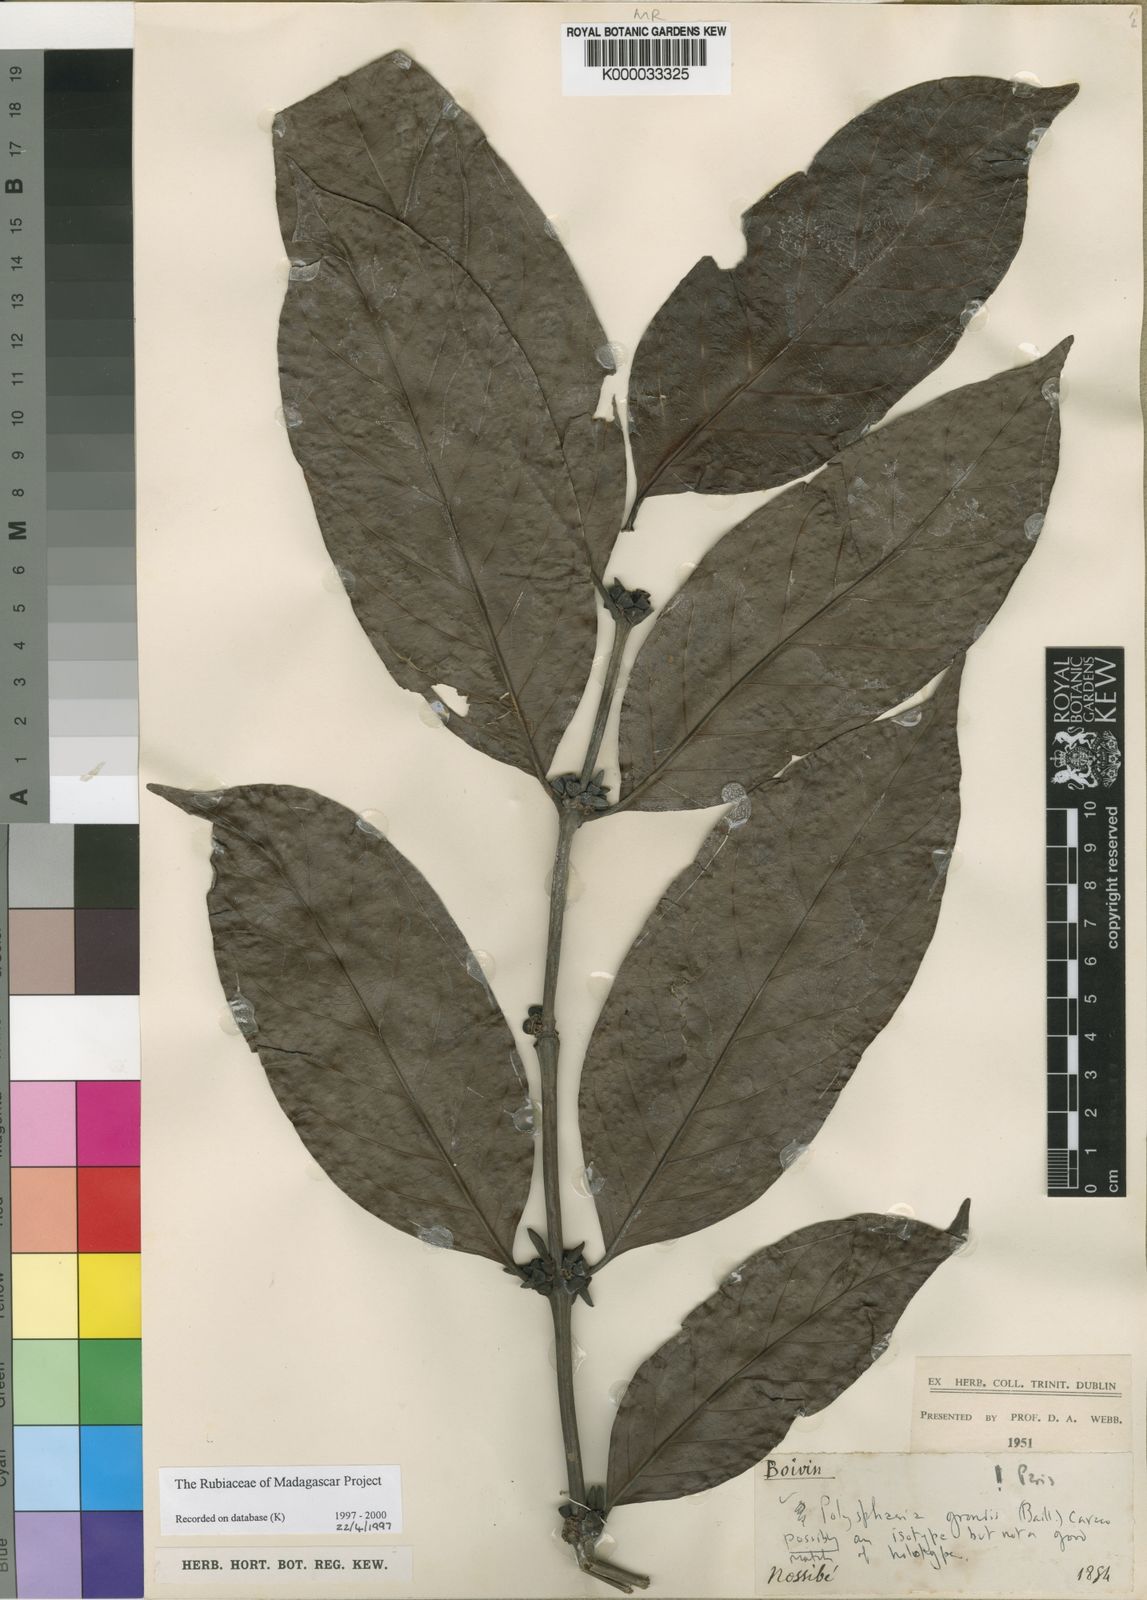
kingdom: Plantae
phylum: Tracheophyta
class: Magnoliopsida
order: Gentianales
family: Rubiaceae
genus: Polysphaeria
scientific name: Polysphaeria grandis
